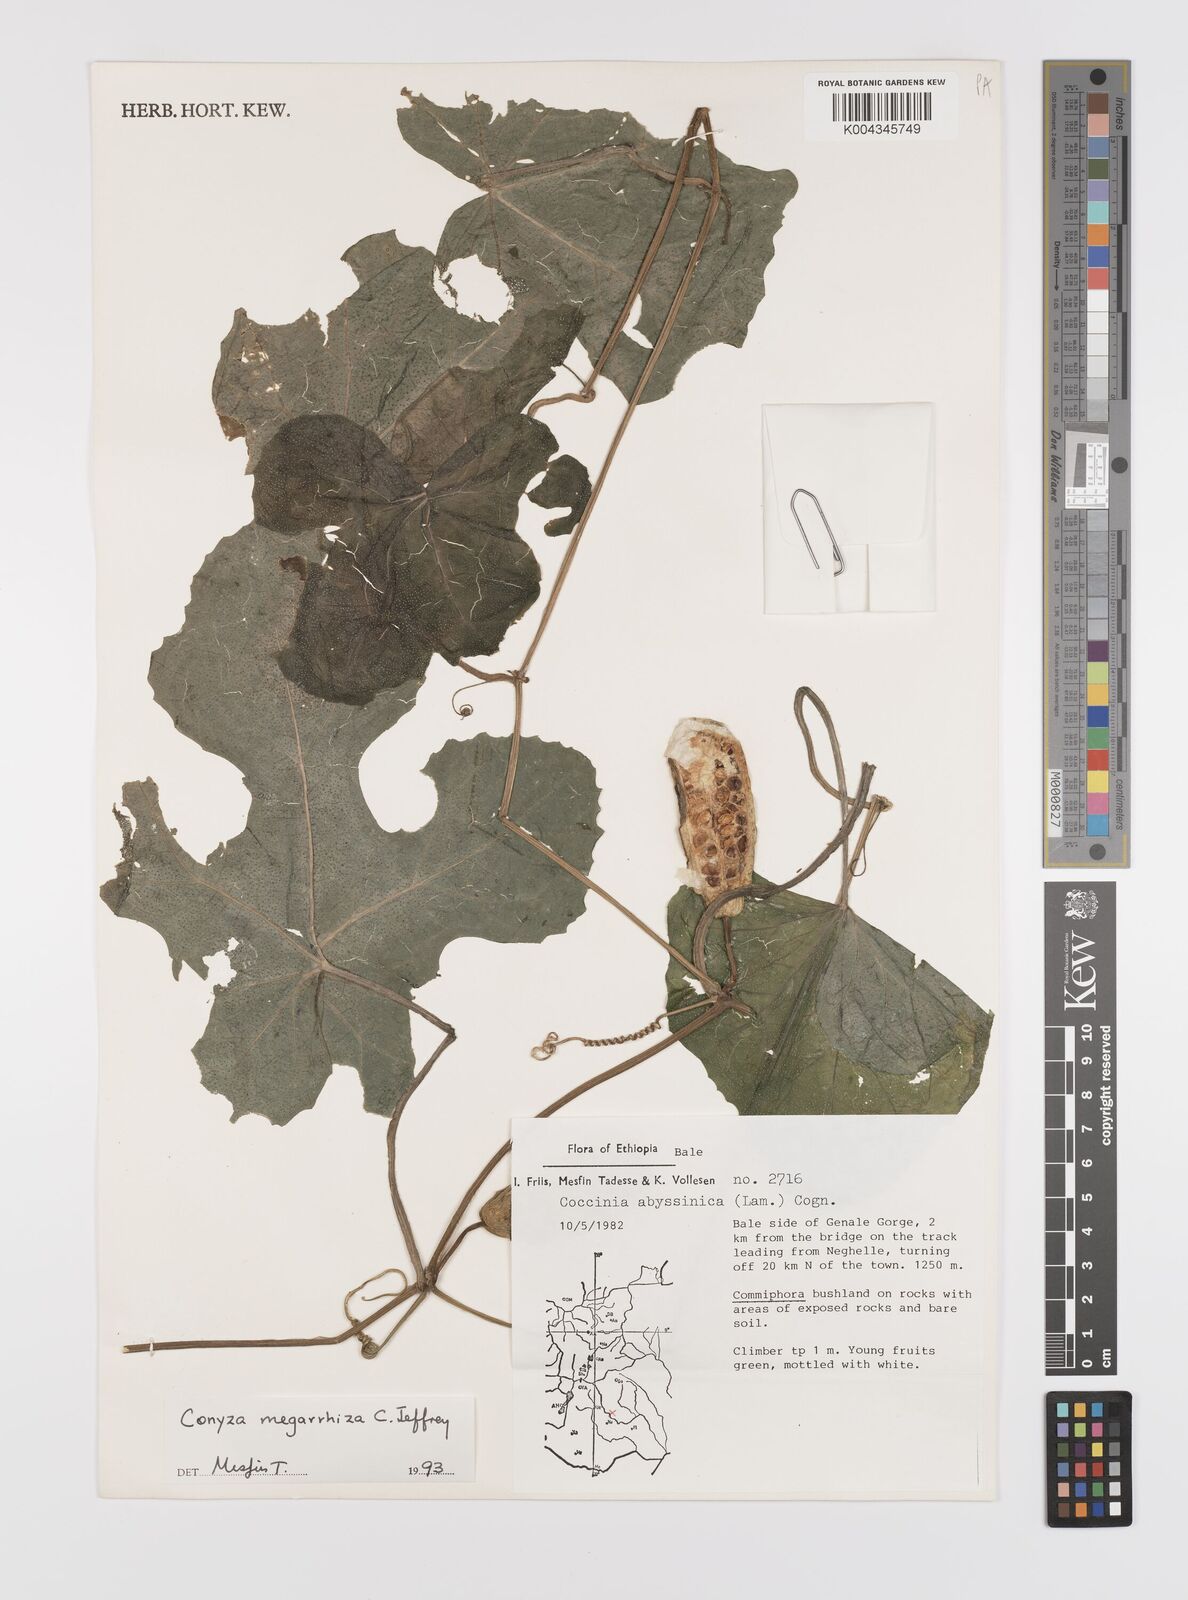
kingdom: Plantae
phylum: Tracheophyta
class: Magnoliopsida
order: Cucurbitales
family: Cucurbitaceae
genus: Coccinia
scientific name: Coccinia megarrhiza
